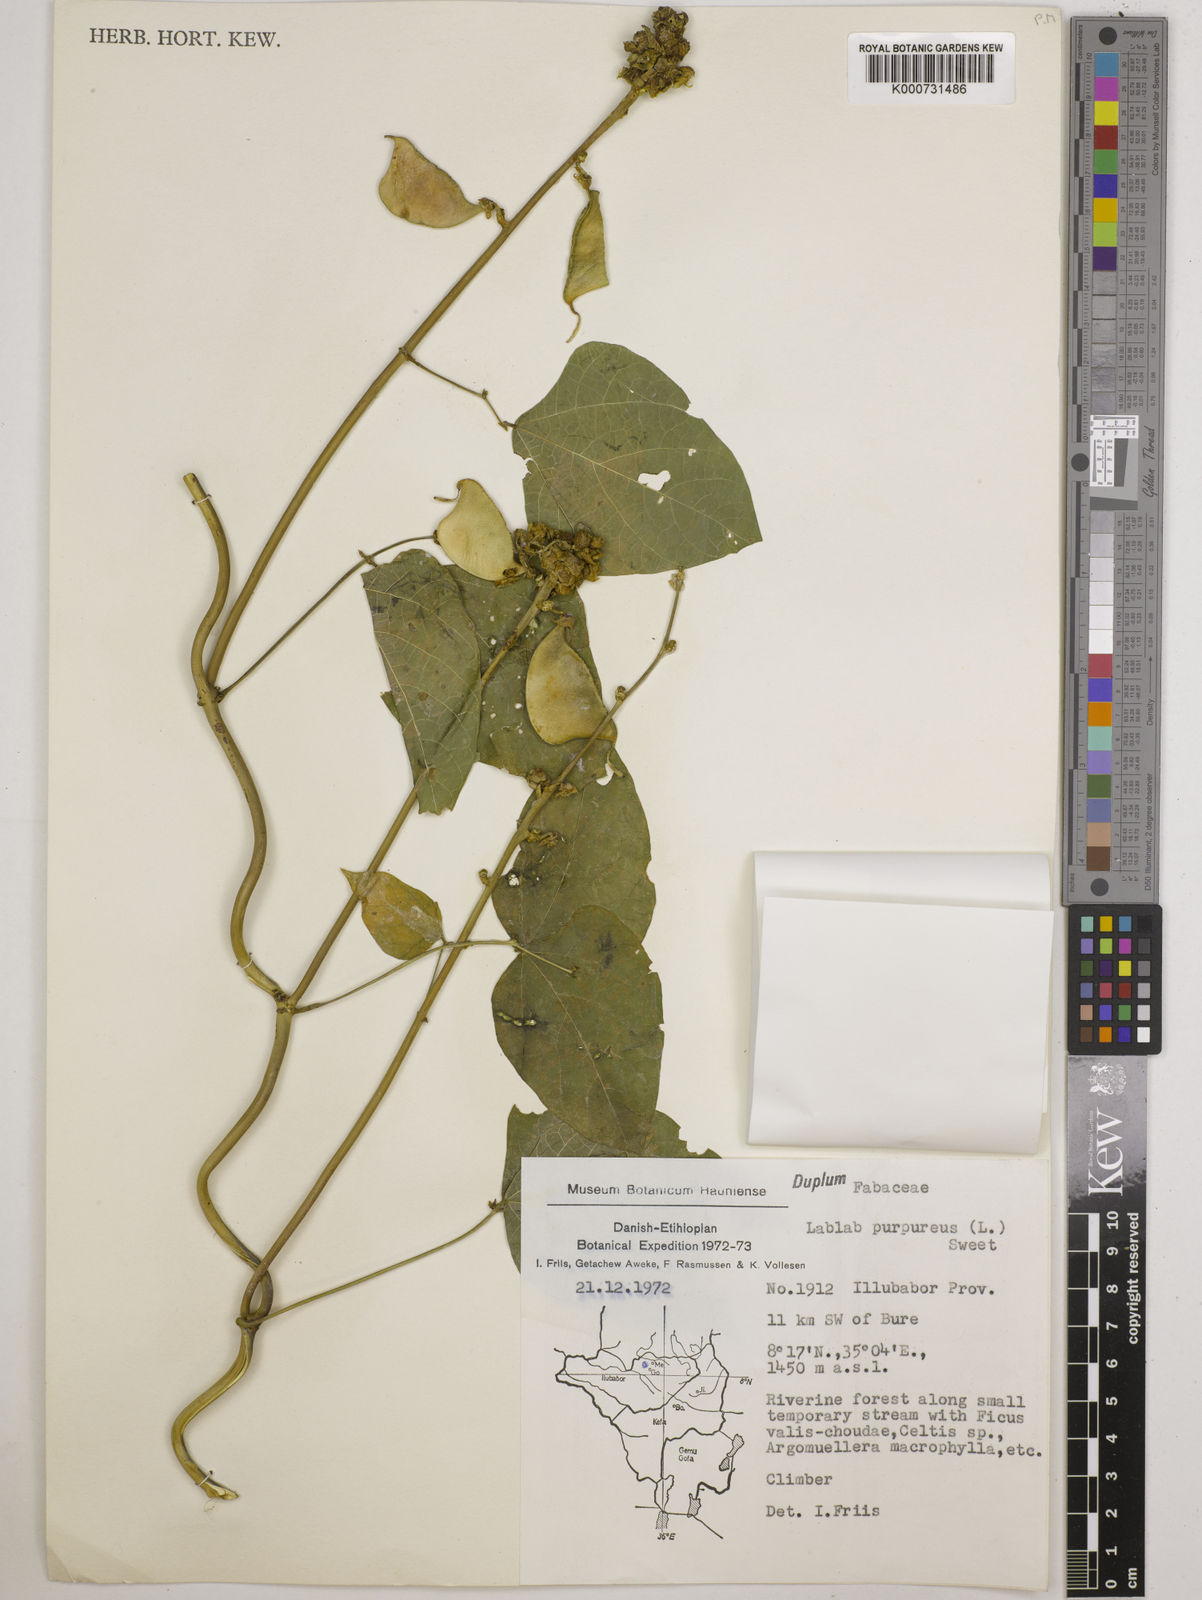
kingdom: Plantae
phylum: Tracheophyta
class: Magnoliopsida
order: Fabales
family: Fabaceae
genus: Lablab
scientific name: Lablab purpureus
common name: Lablab-bean
